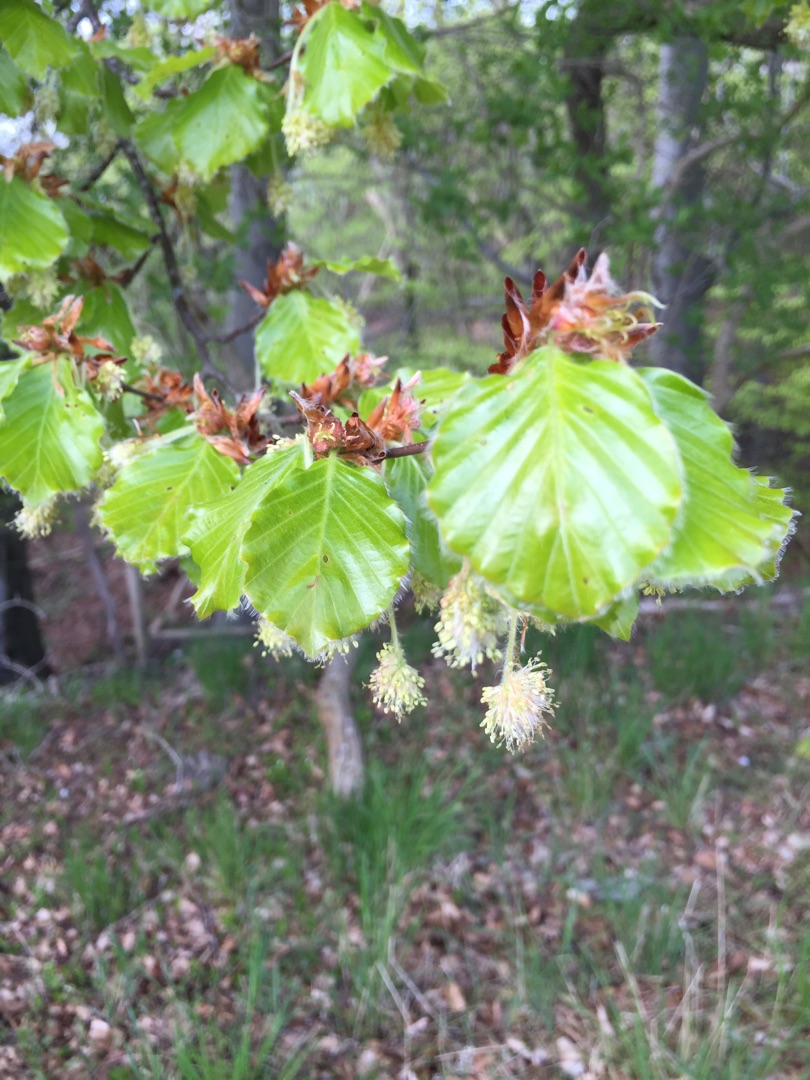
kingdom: Plantae
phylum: Tracheophyta
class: Magnoliopsida
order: Fagales
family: Fagaceae
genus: Fagus
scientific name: Fagus sylvatica
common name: Bøg
